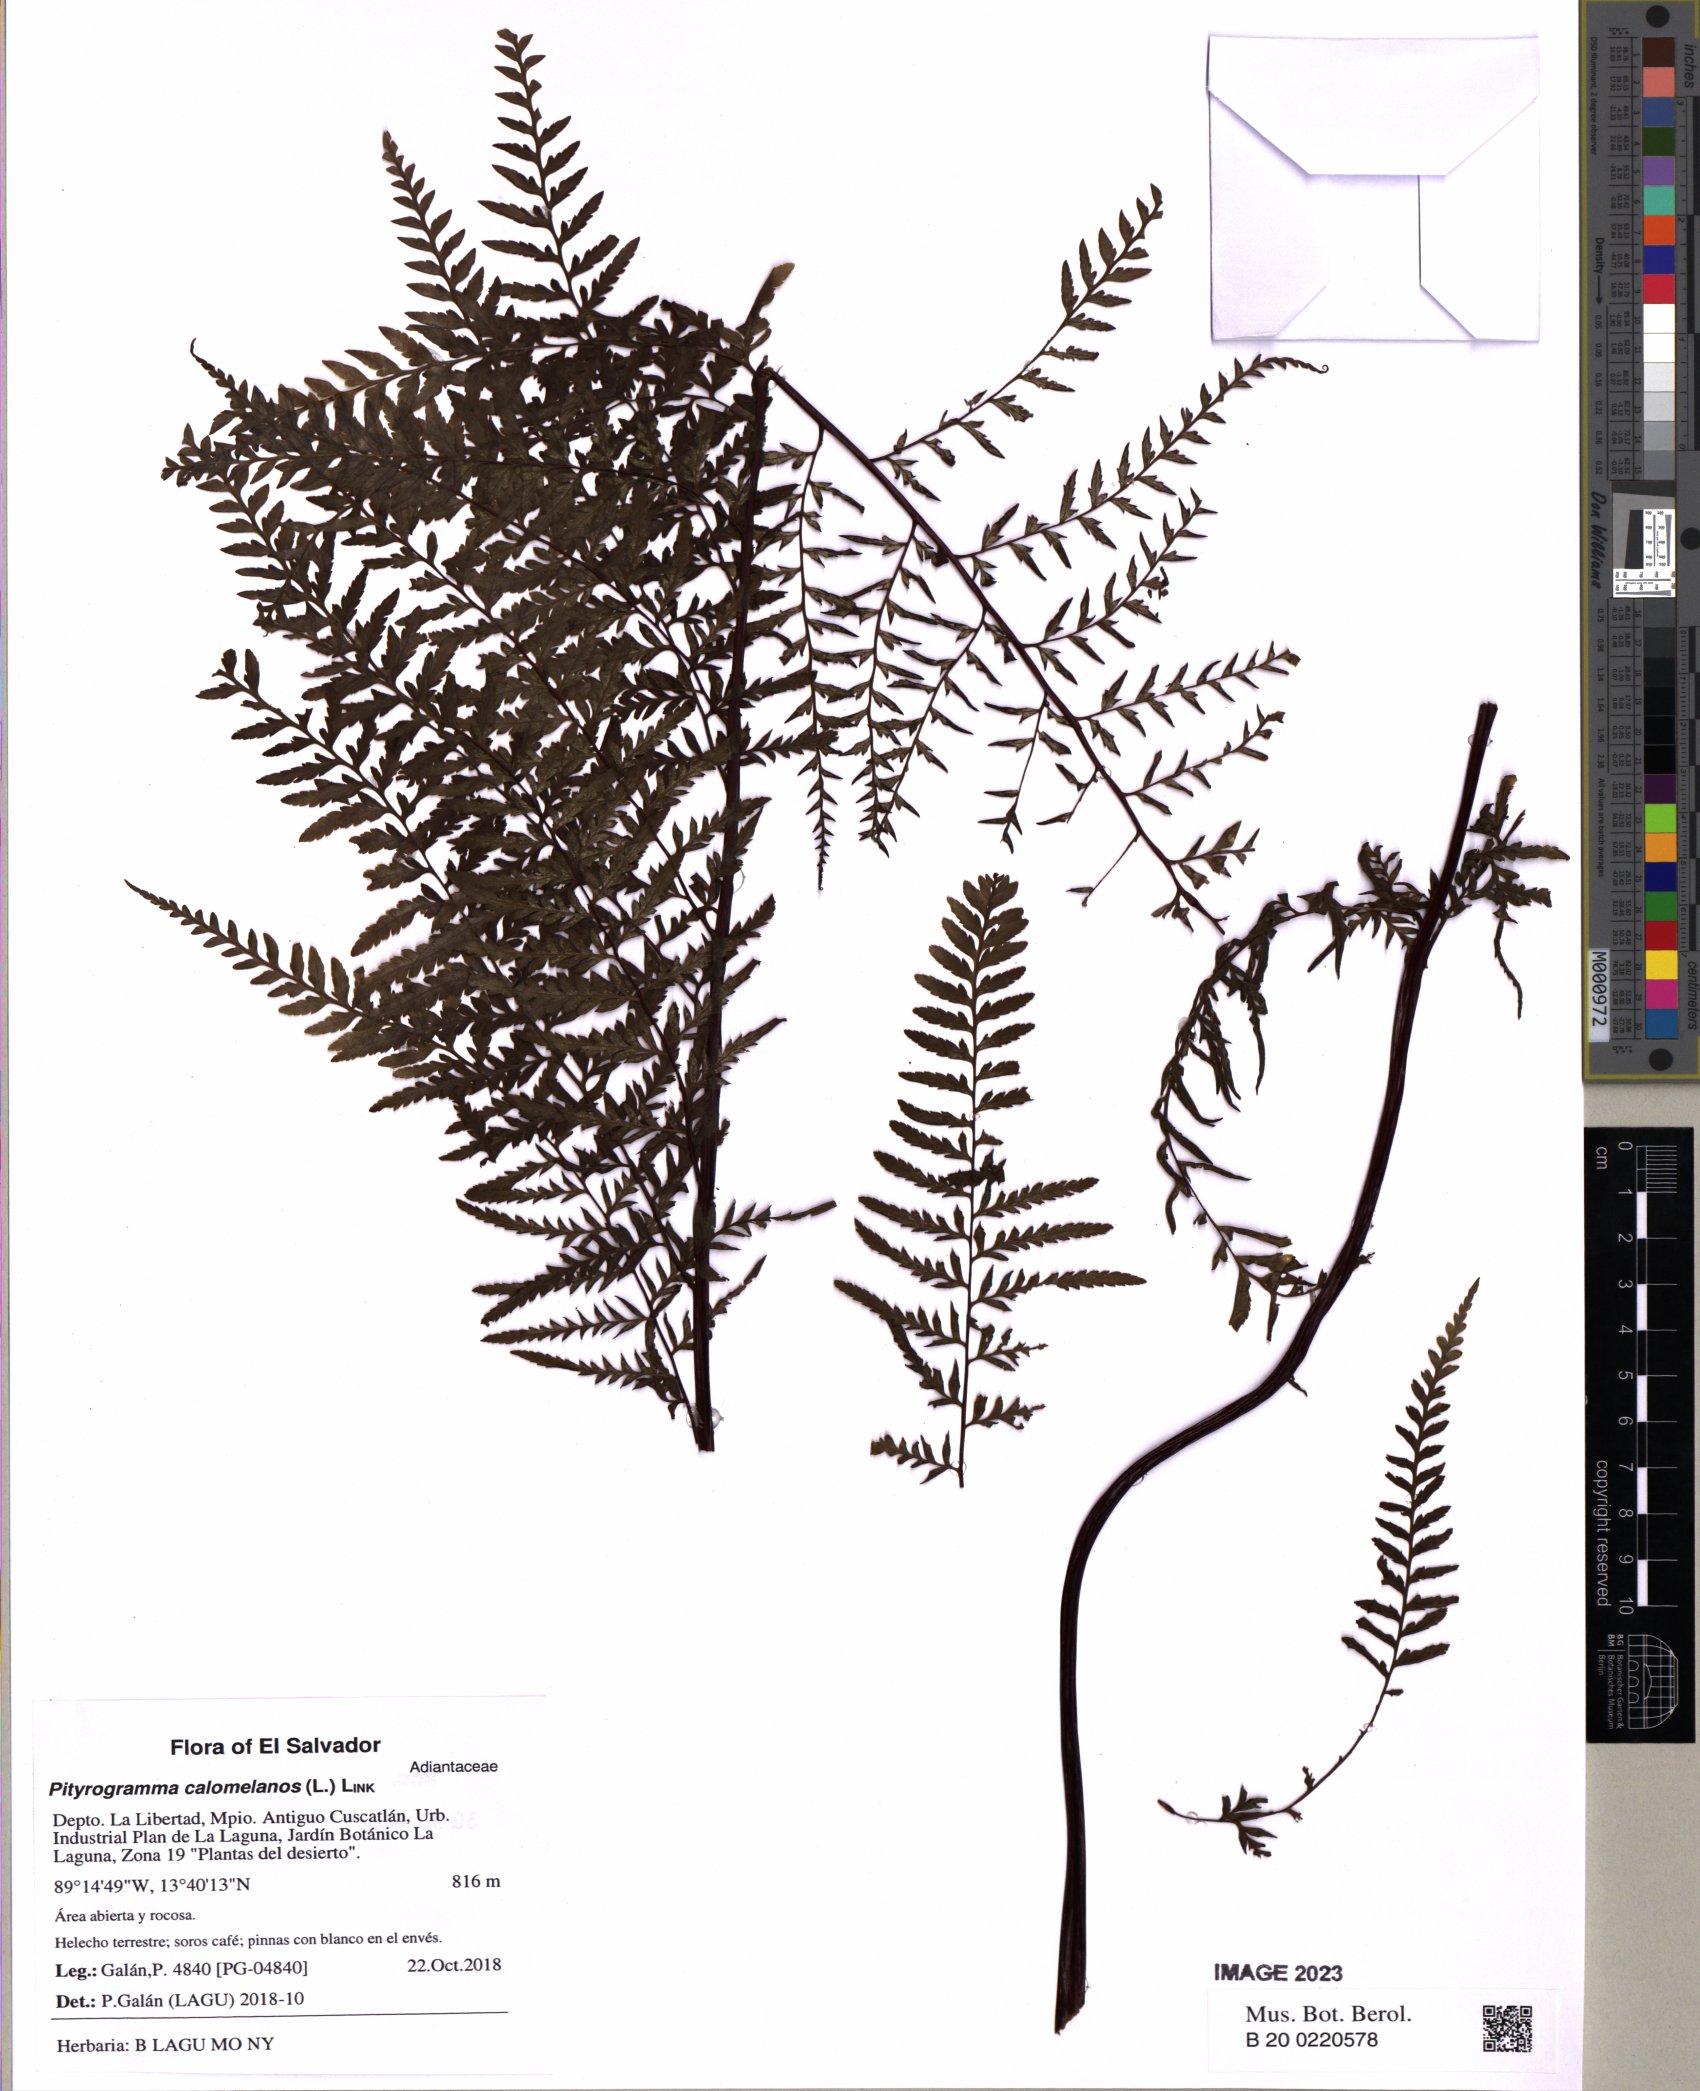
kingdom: Plantae
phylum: Tracheophyta
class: Polypodiopsida
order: Polypodiales
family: Pteridaceae
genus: Pityrogramma
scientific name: Pityrogramma calomelanos
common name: Dixie silverback fern
